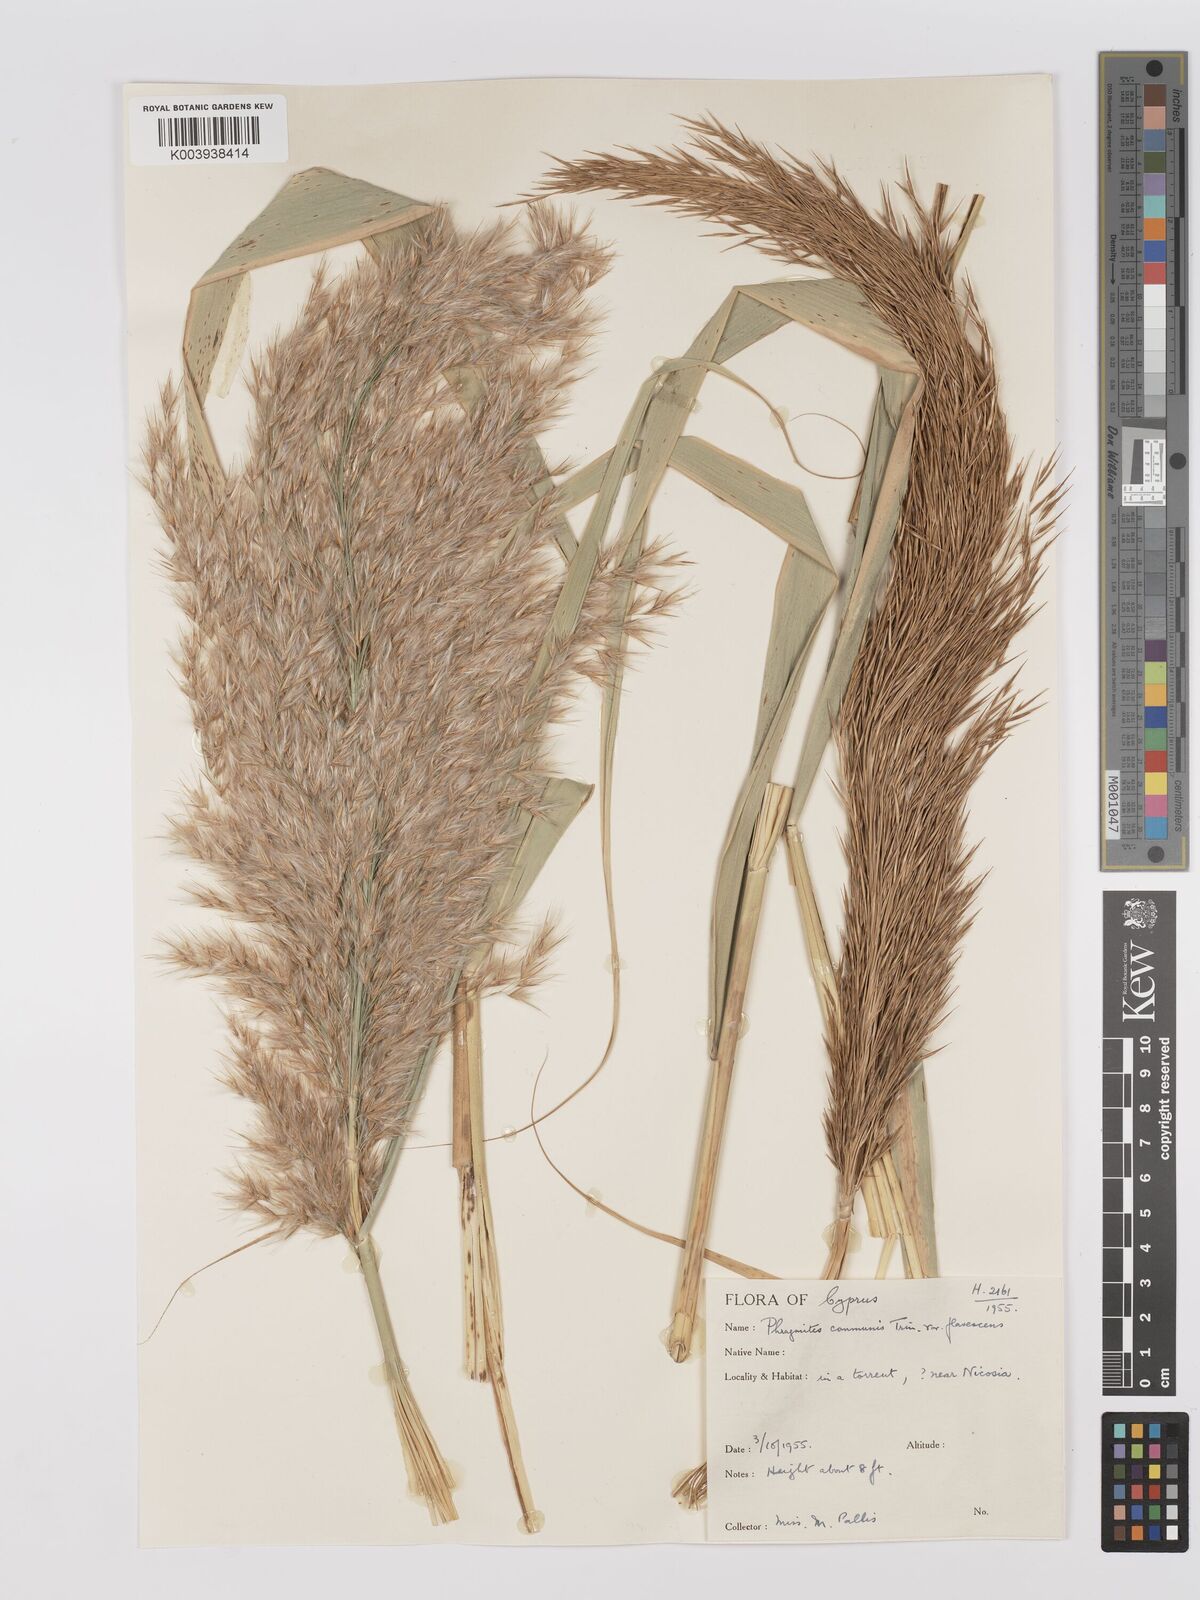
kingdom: Plantae
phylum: Tracheophyta
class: Liliopsida
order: Poales
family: Poaceae
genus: Phragmites
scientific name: Phragmites australis
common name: Common reed
